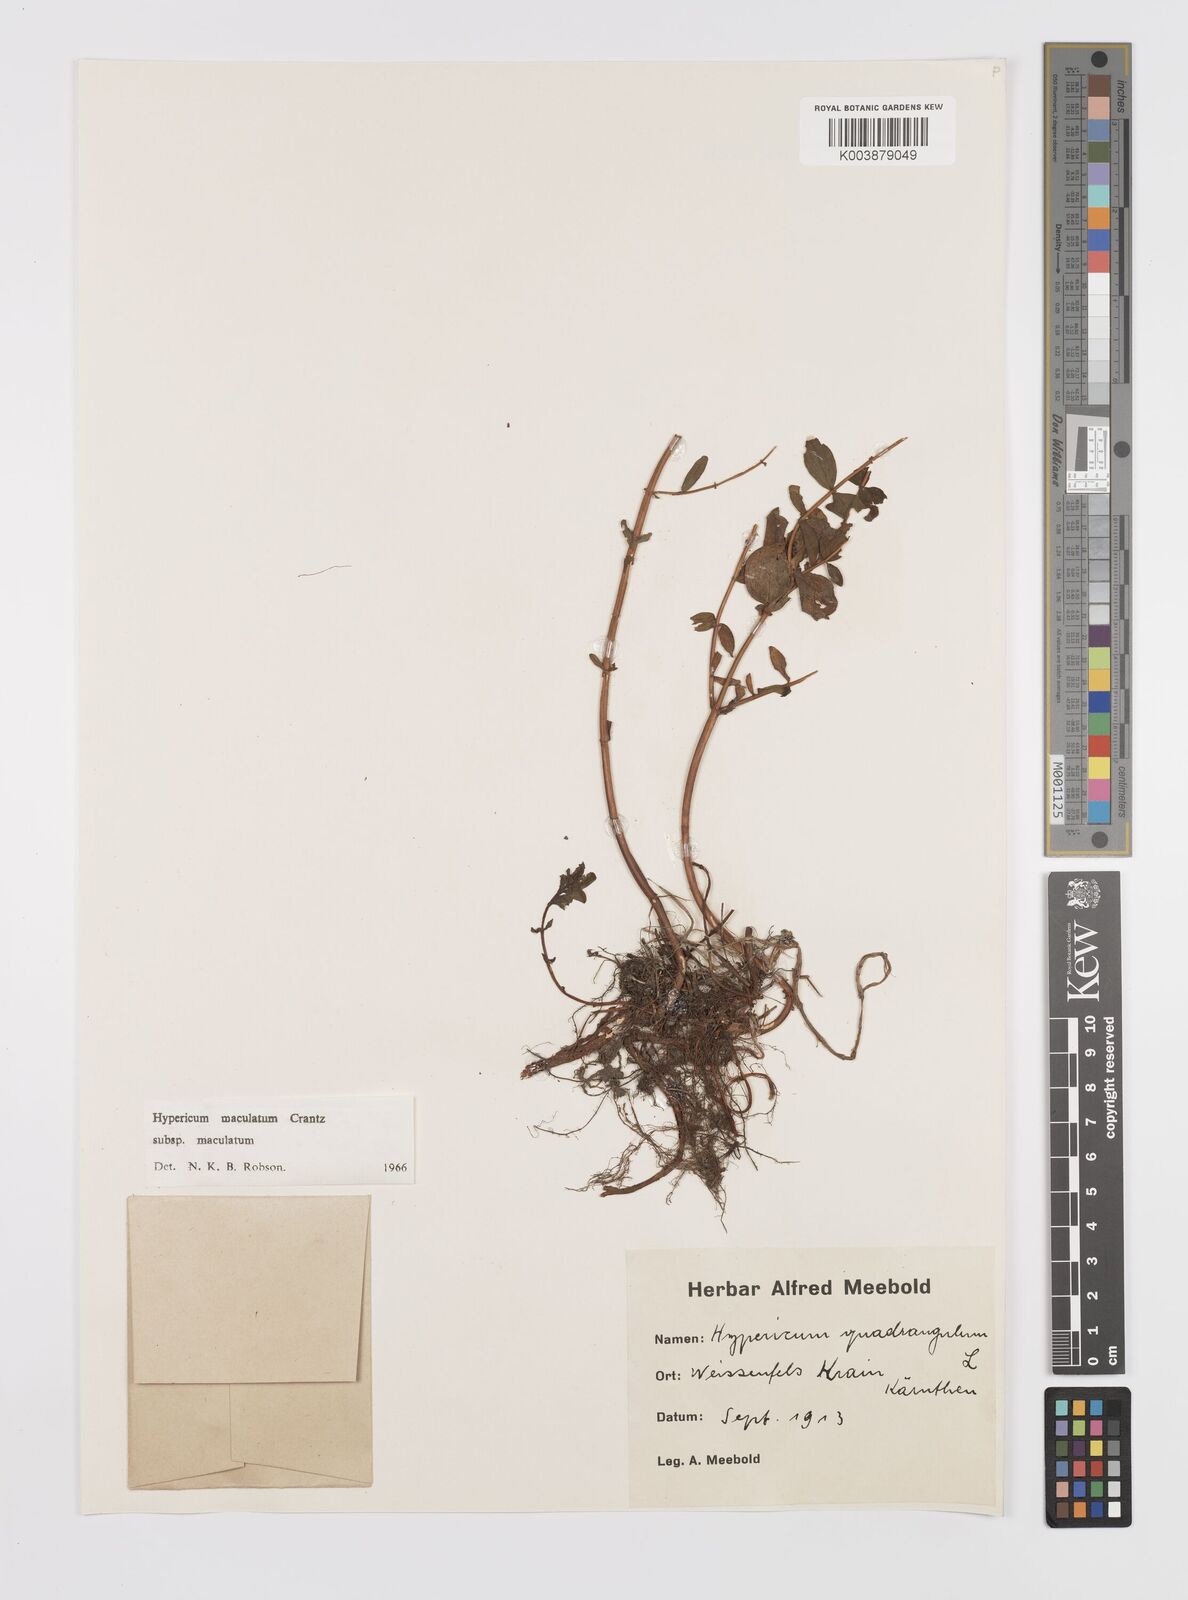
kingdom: Plantae
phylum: Tracheophyta
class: Magnoliopsida
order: Malpighiales
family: Hypericaceae
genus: Hypericum
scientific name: Hypericum maculatum
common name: Imperforate st. john's-wort
